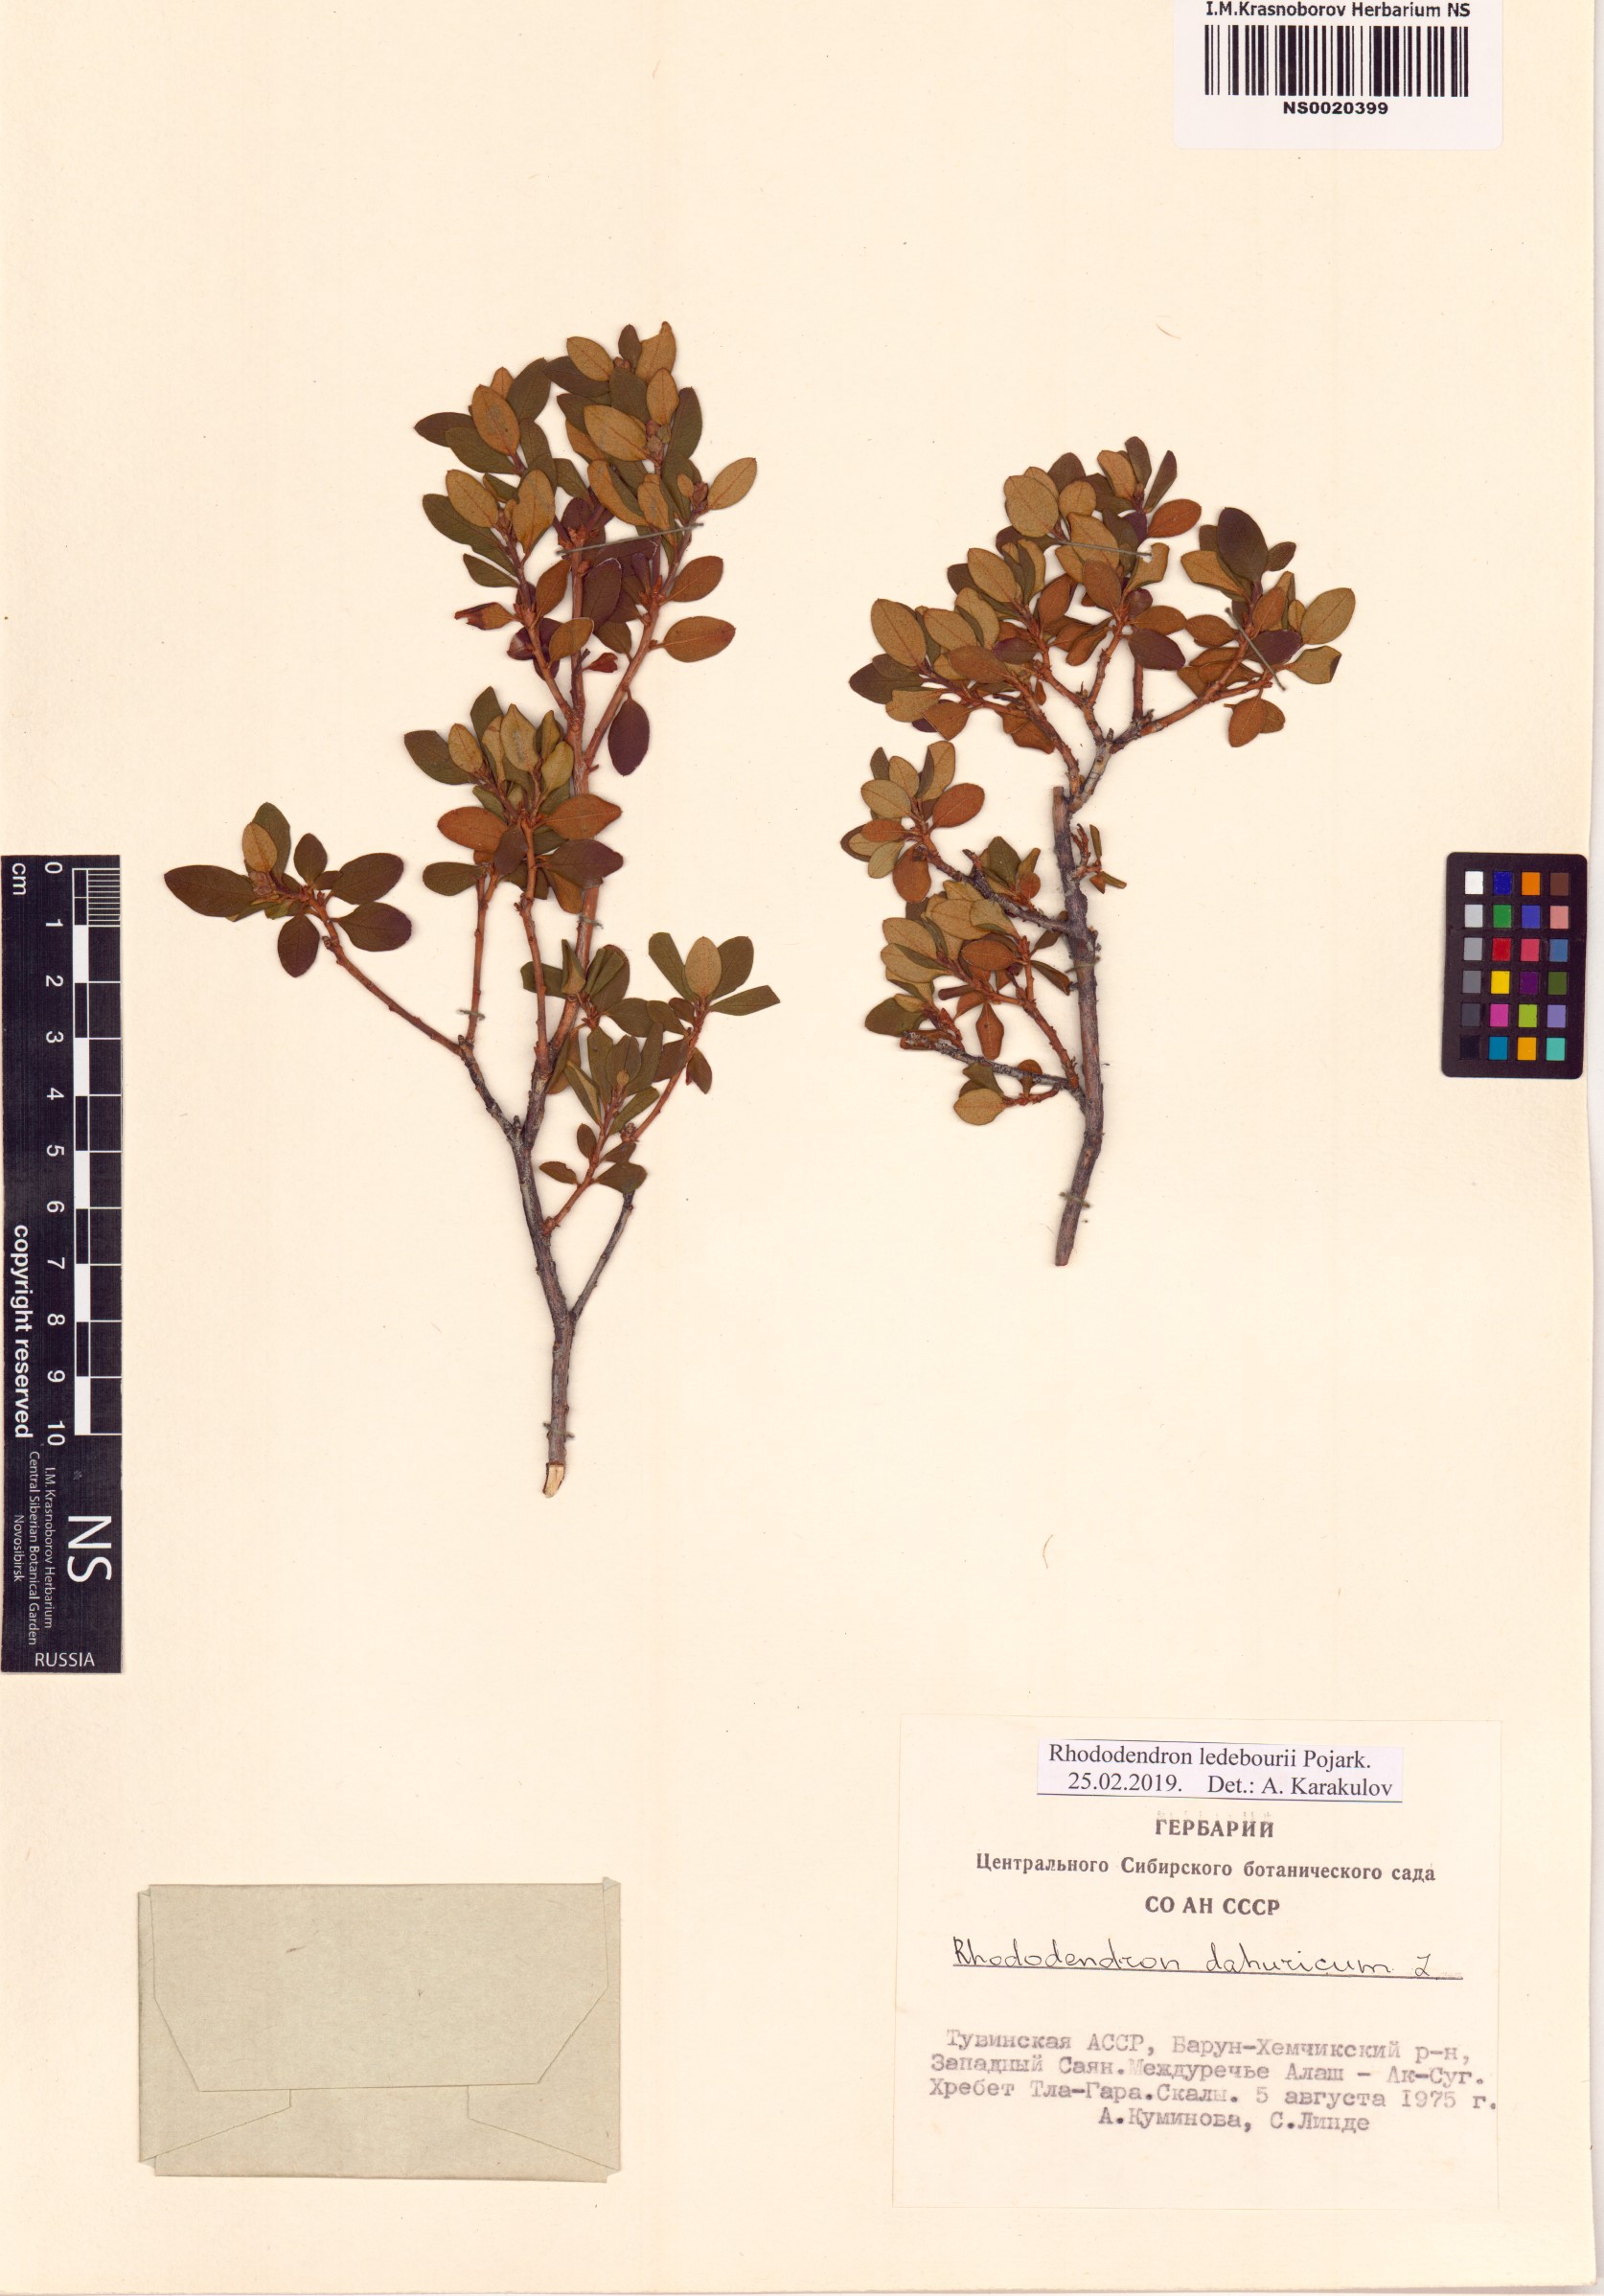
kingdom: Plantae
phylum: Tracheophyta
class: Magnoliopsida
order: Ericales
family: Ericaceae
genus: Rhododendron
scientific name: Rhododendron dauricum
